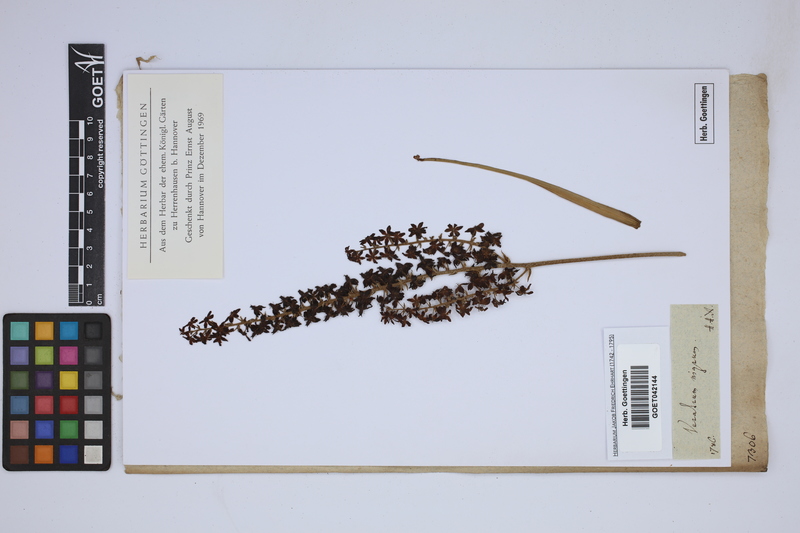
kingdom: Plantae
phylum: Tracheophyta
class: Liliopsida
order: Liliales
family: Melanthiaceae
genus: Veratrum
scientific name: Veratrum nigrum
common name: Black veratrum
